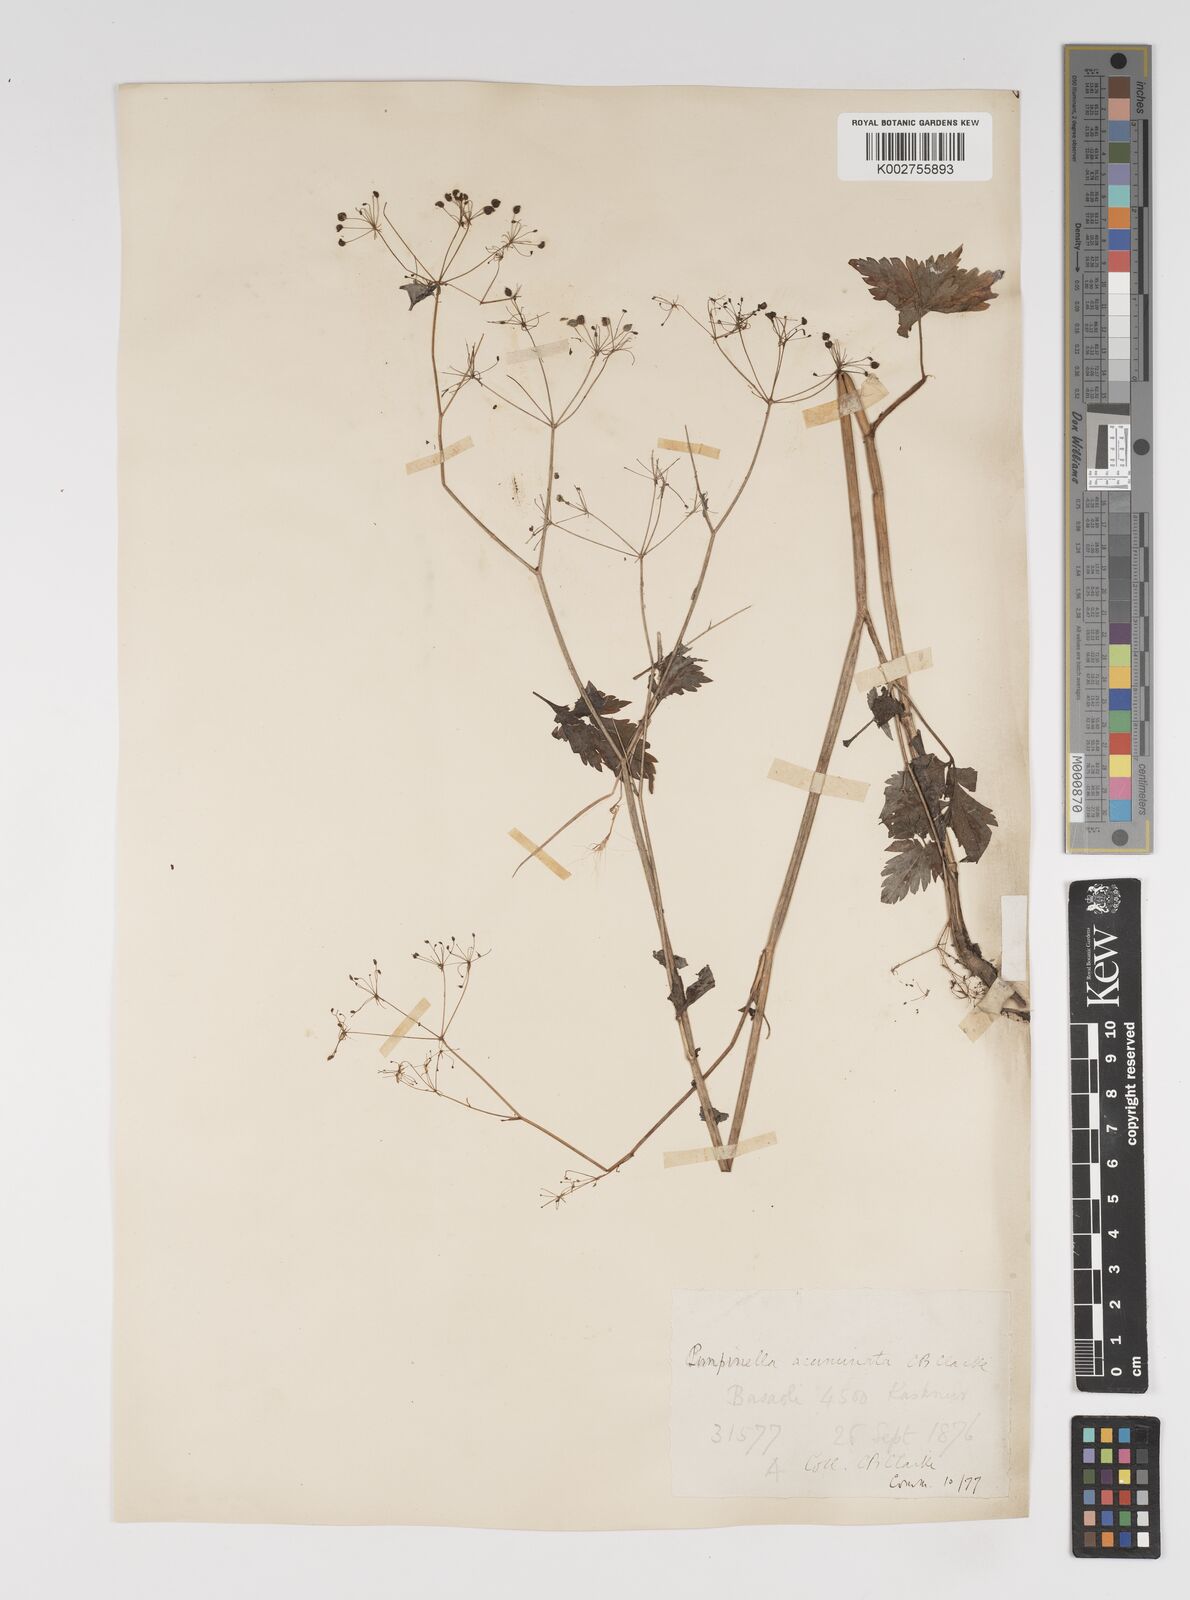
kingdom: Plantae
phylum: Tracheophyta
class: Magnoliopsida
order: Apiales
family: Apiaceae
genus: Pimpinella
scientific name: Pimpinella acuminata
